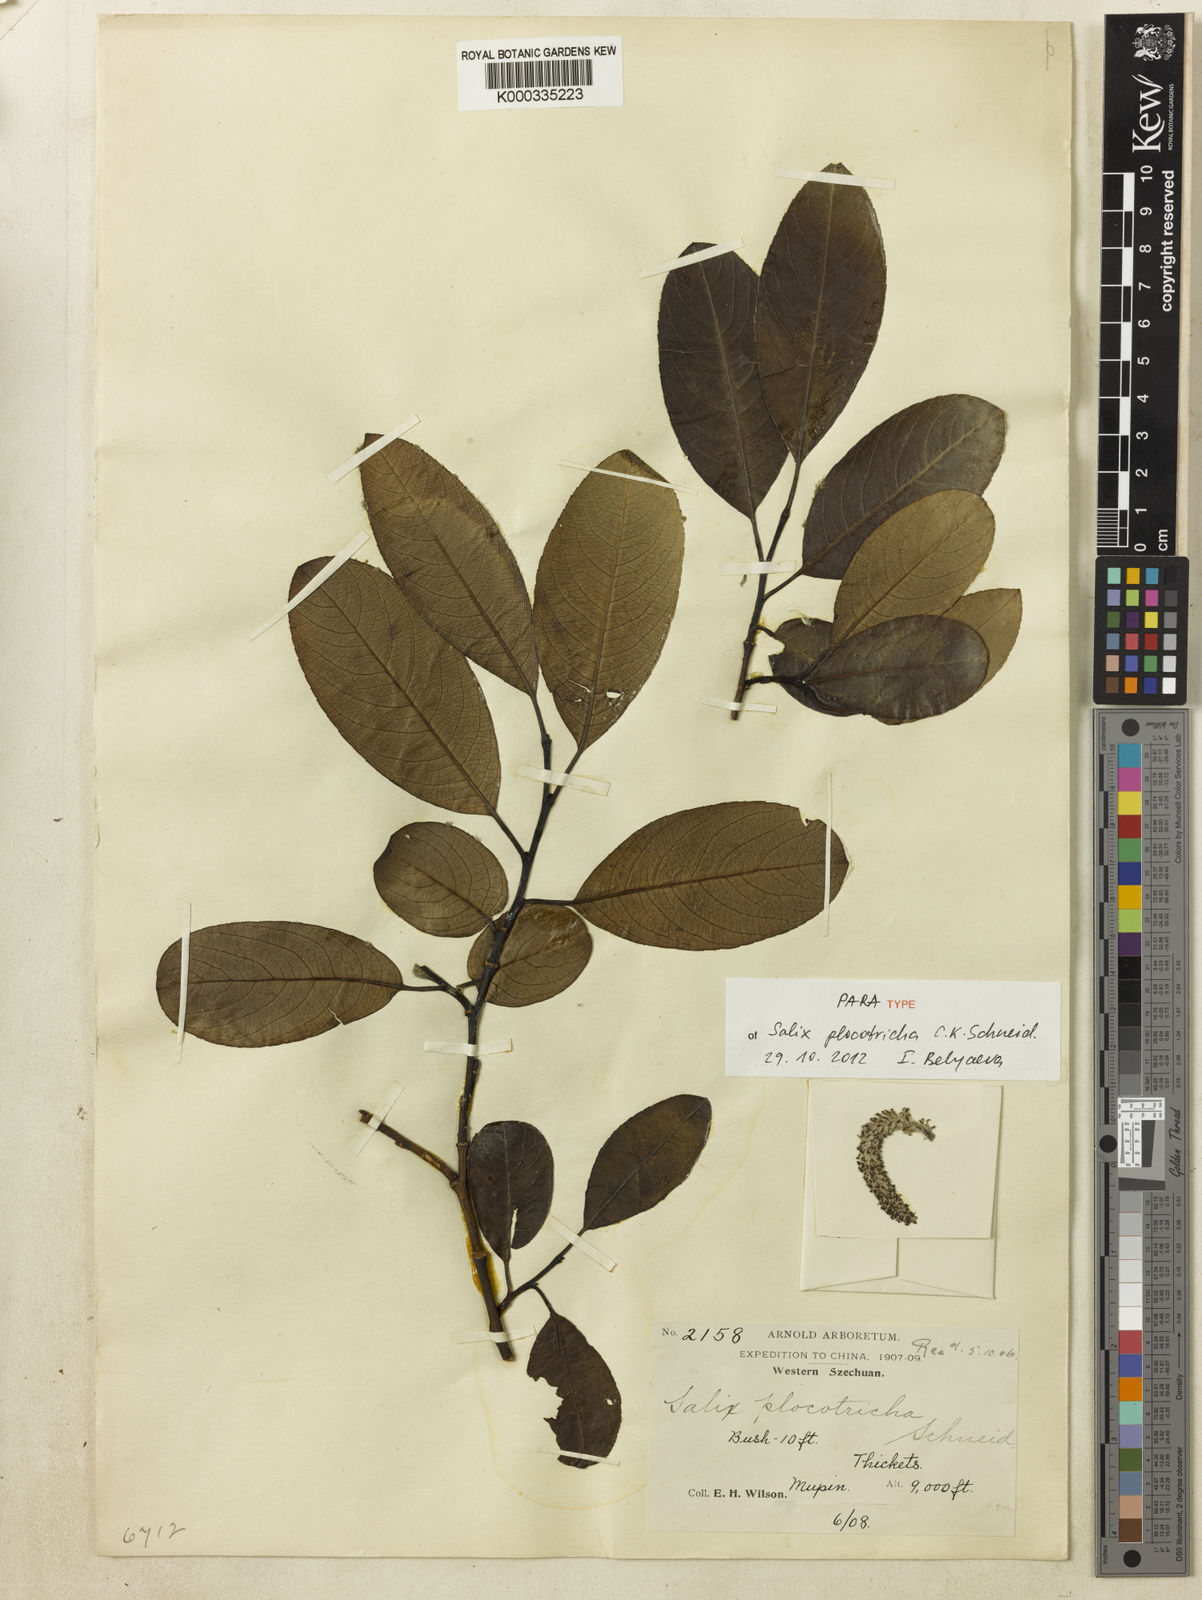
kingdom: Plantae
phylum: Tracheophyta
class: Magnoliopsida
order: Malpighiales
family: Salicaceae
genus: Salix
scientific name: Salix plocotricha
